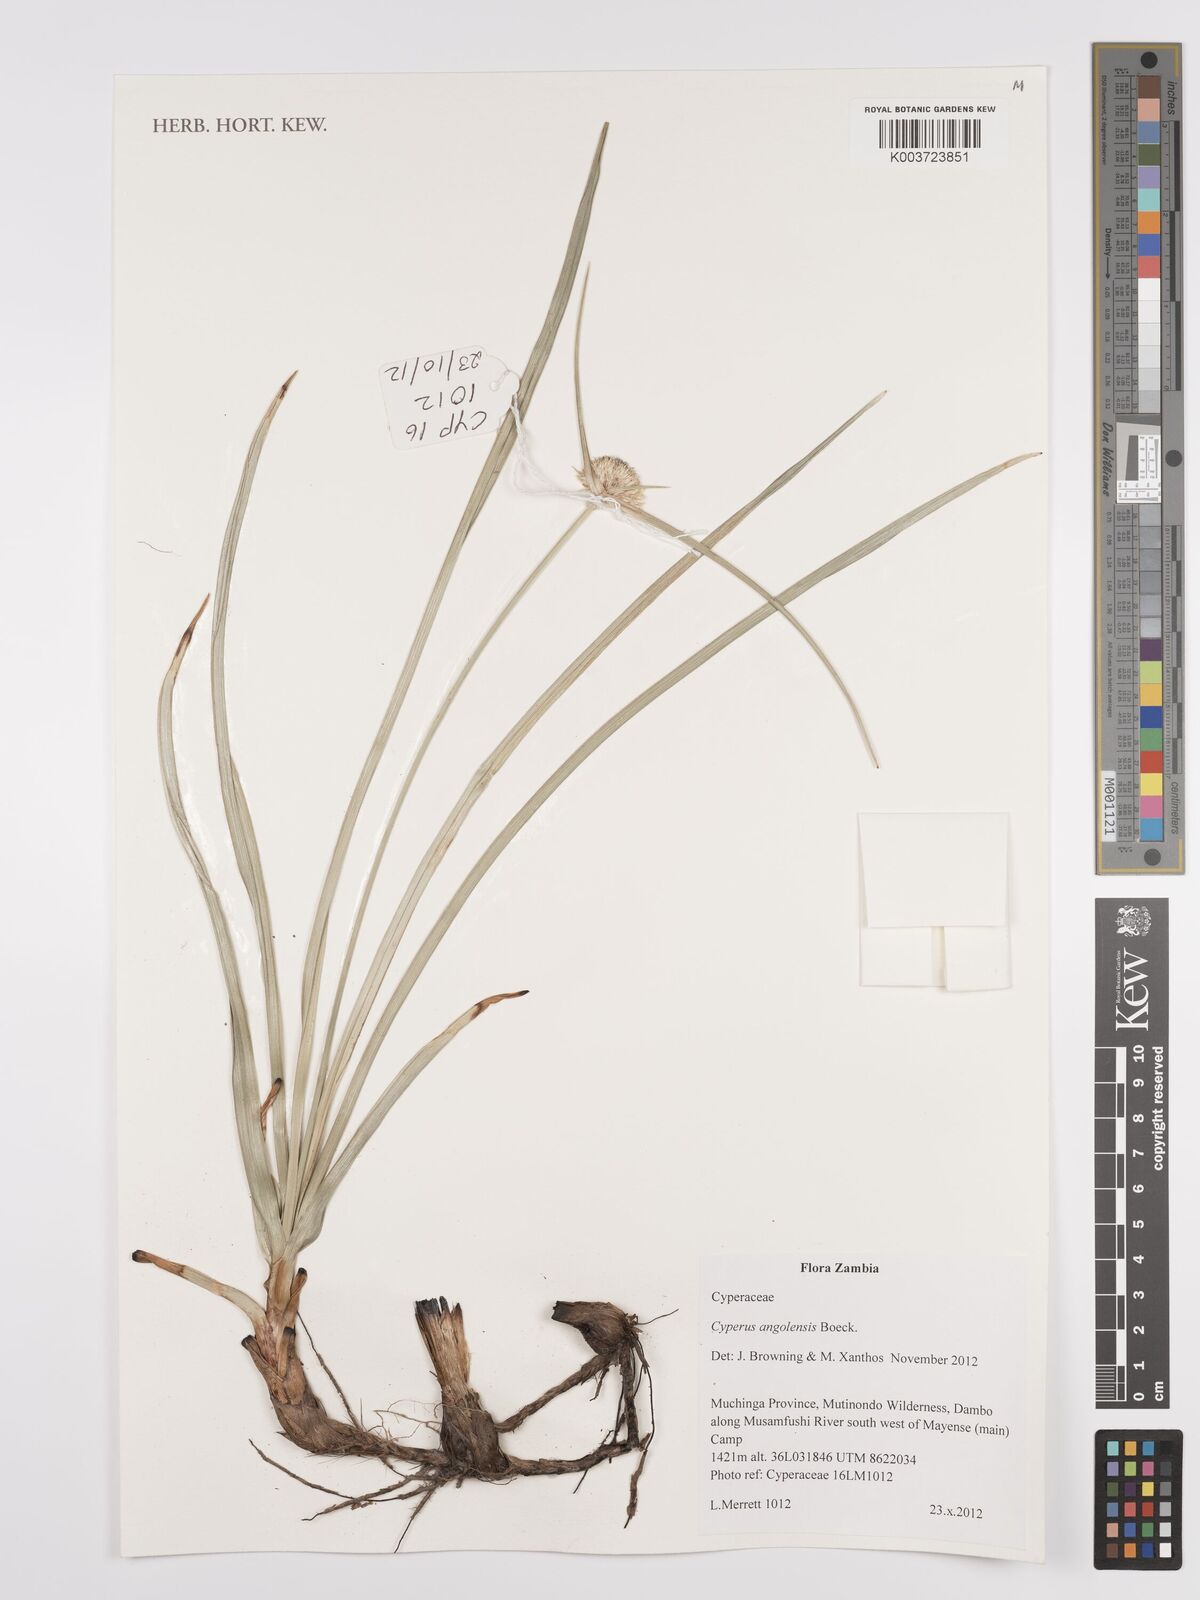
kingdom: Plantae
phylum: Tracheophyta
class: Liliopsida
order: Poales
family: Cyperaceae
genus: Cyperus
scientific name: Cyperus angolensis
